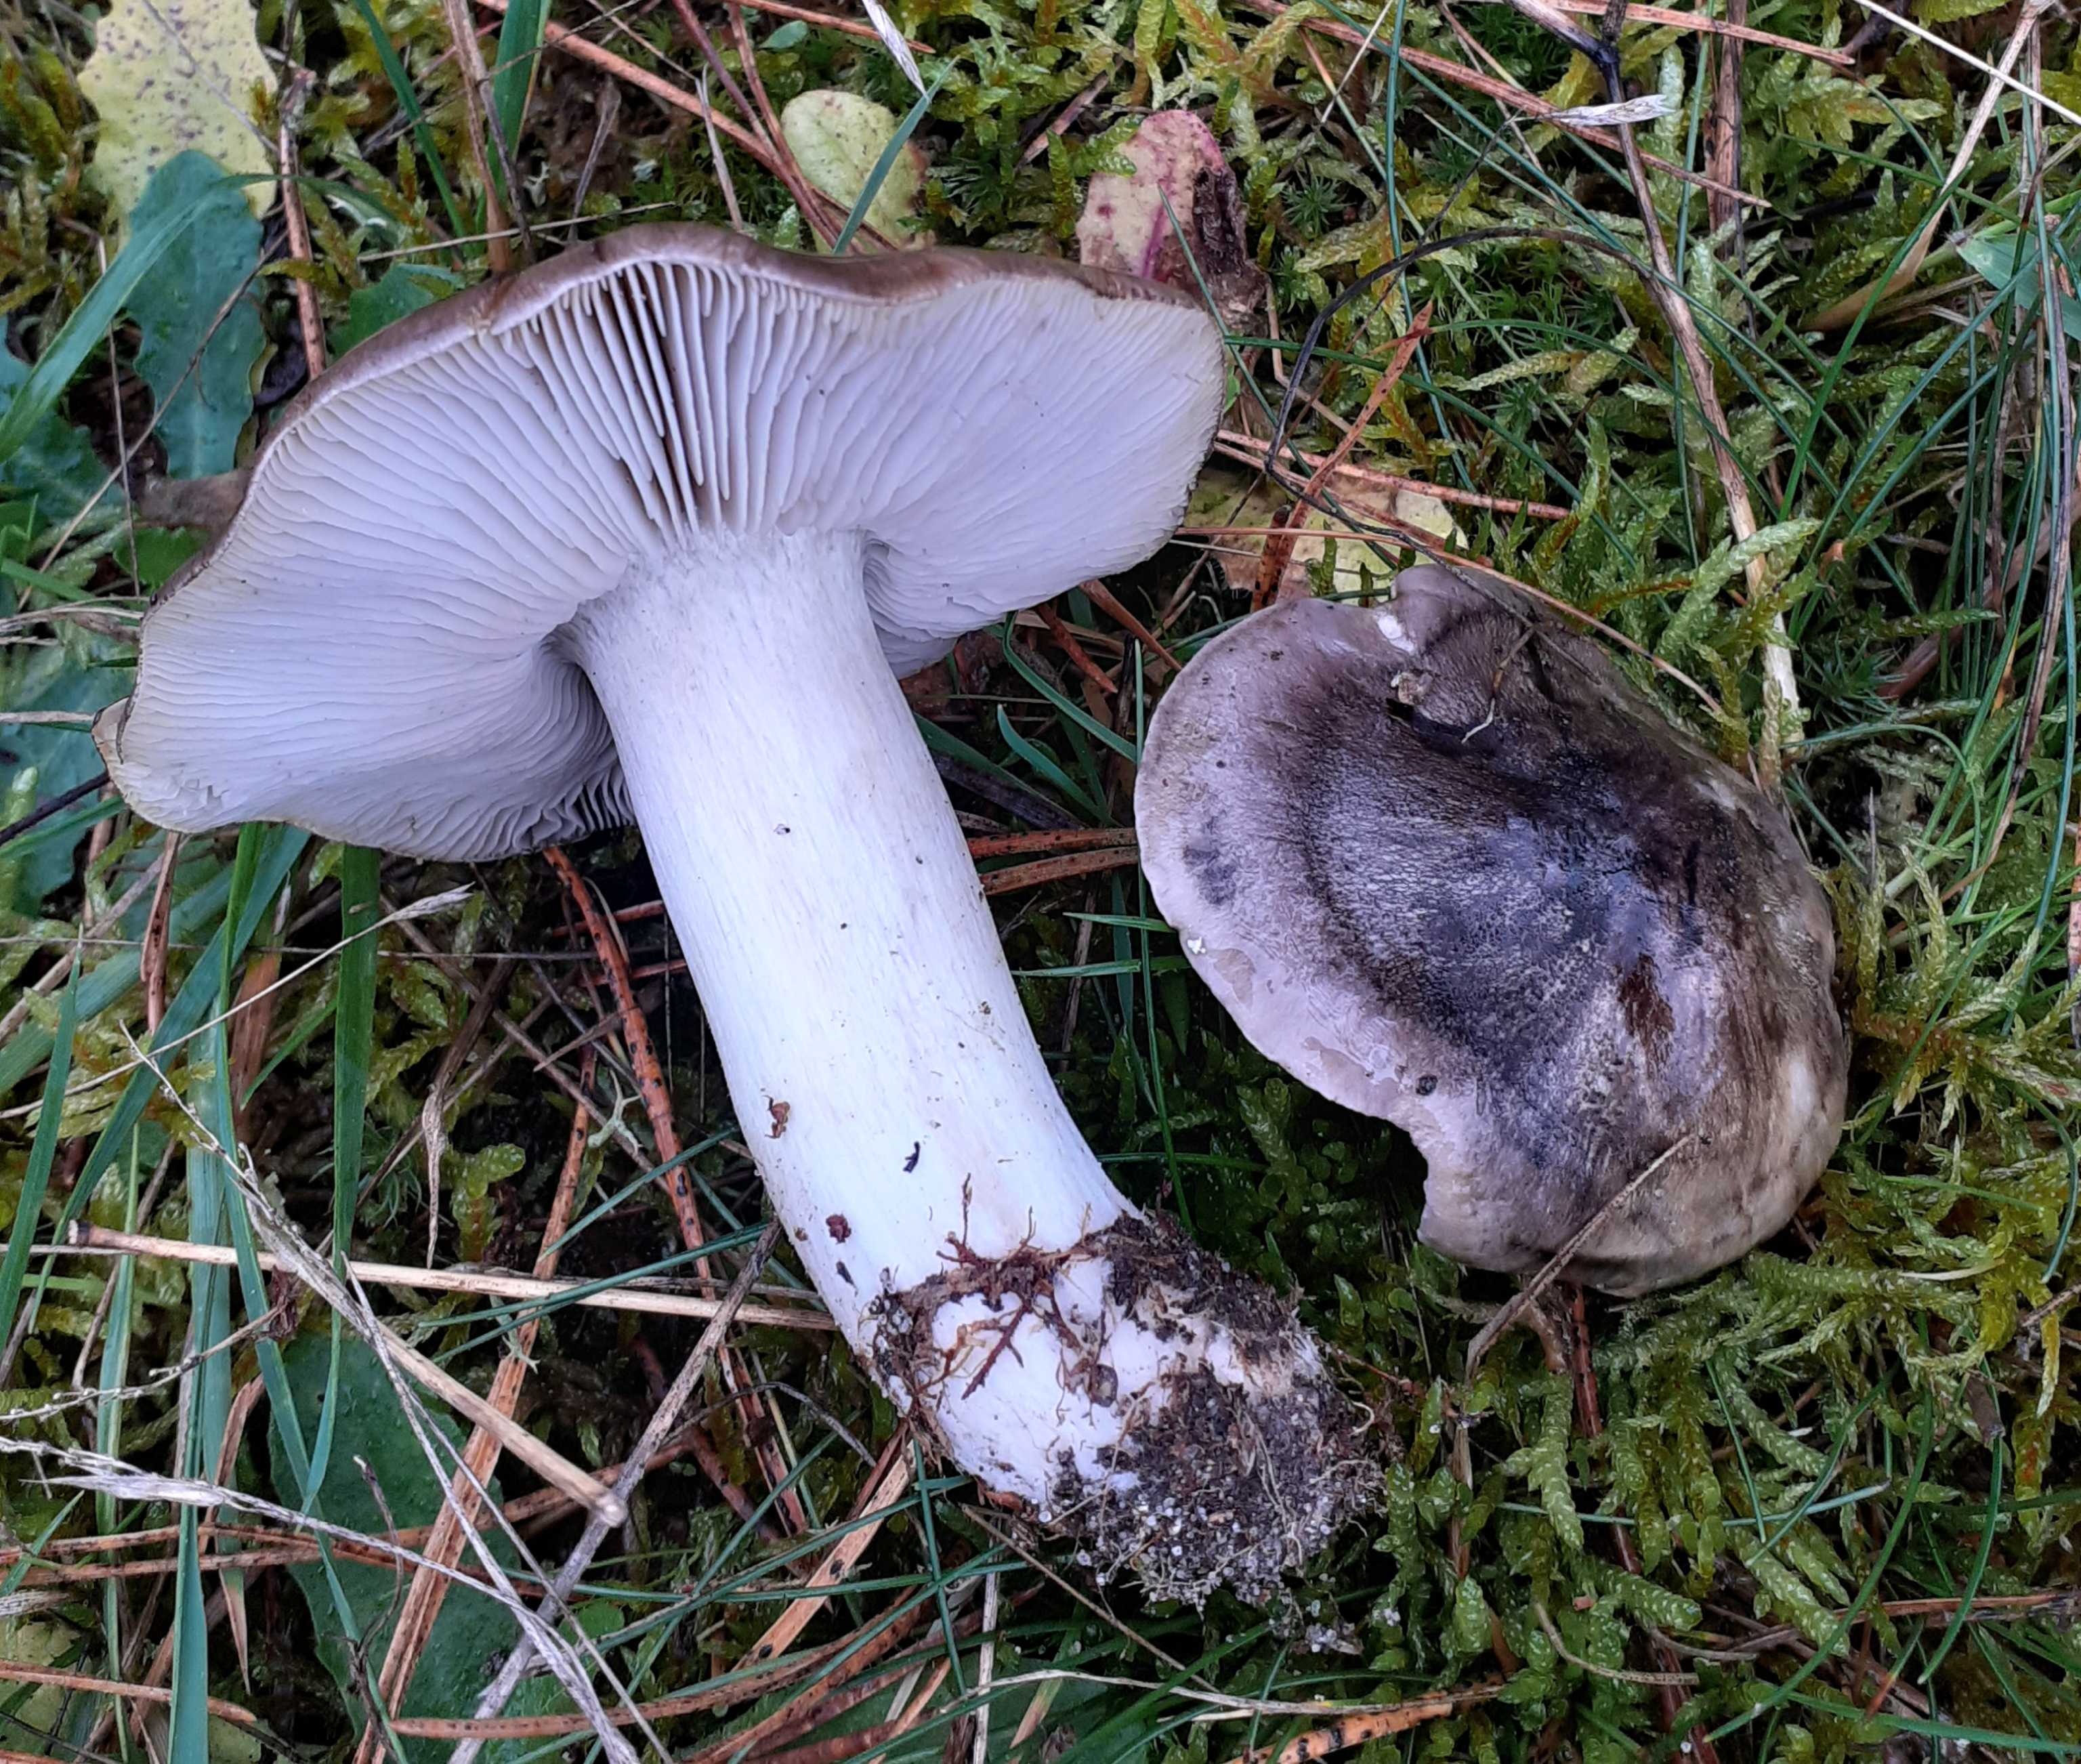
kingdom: Fungi
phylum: Basidiomycota
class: Agaricomycetes
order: Agaricales
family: Tricholomataceae
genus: Tricholoma
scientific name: Tricholoma portentosum
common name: grå ridderhat
